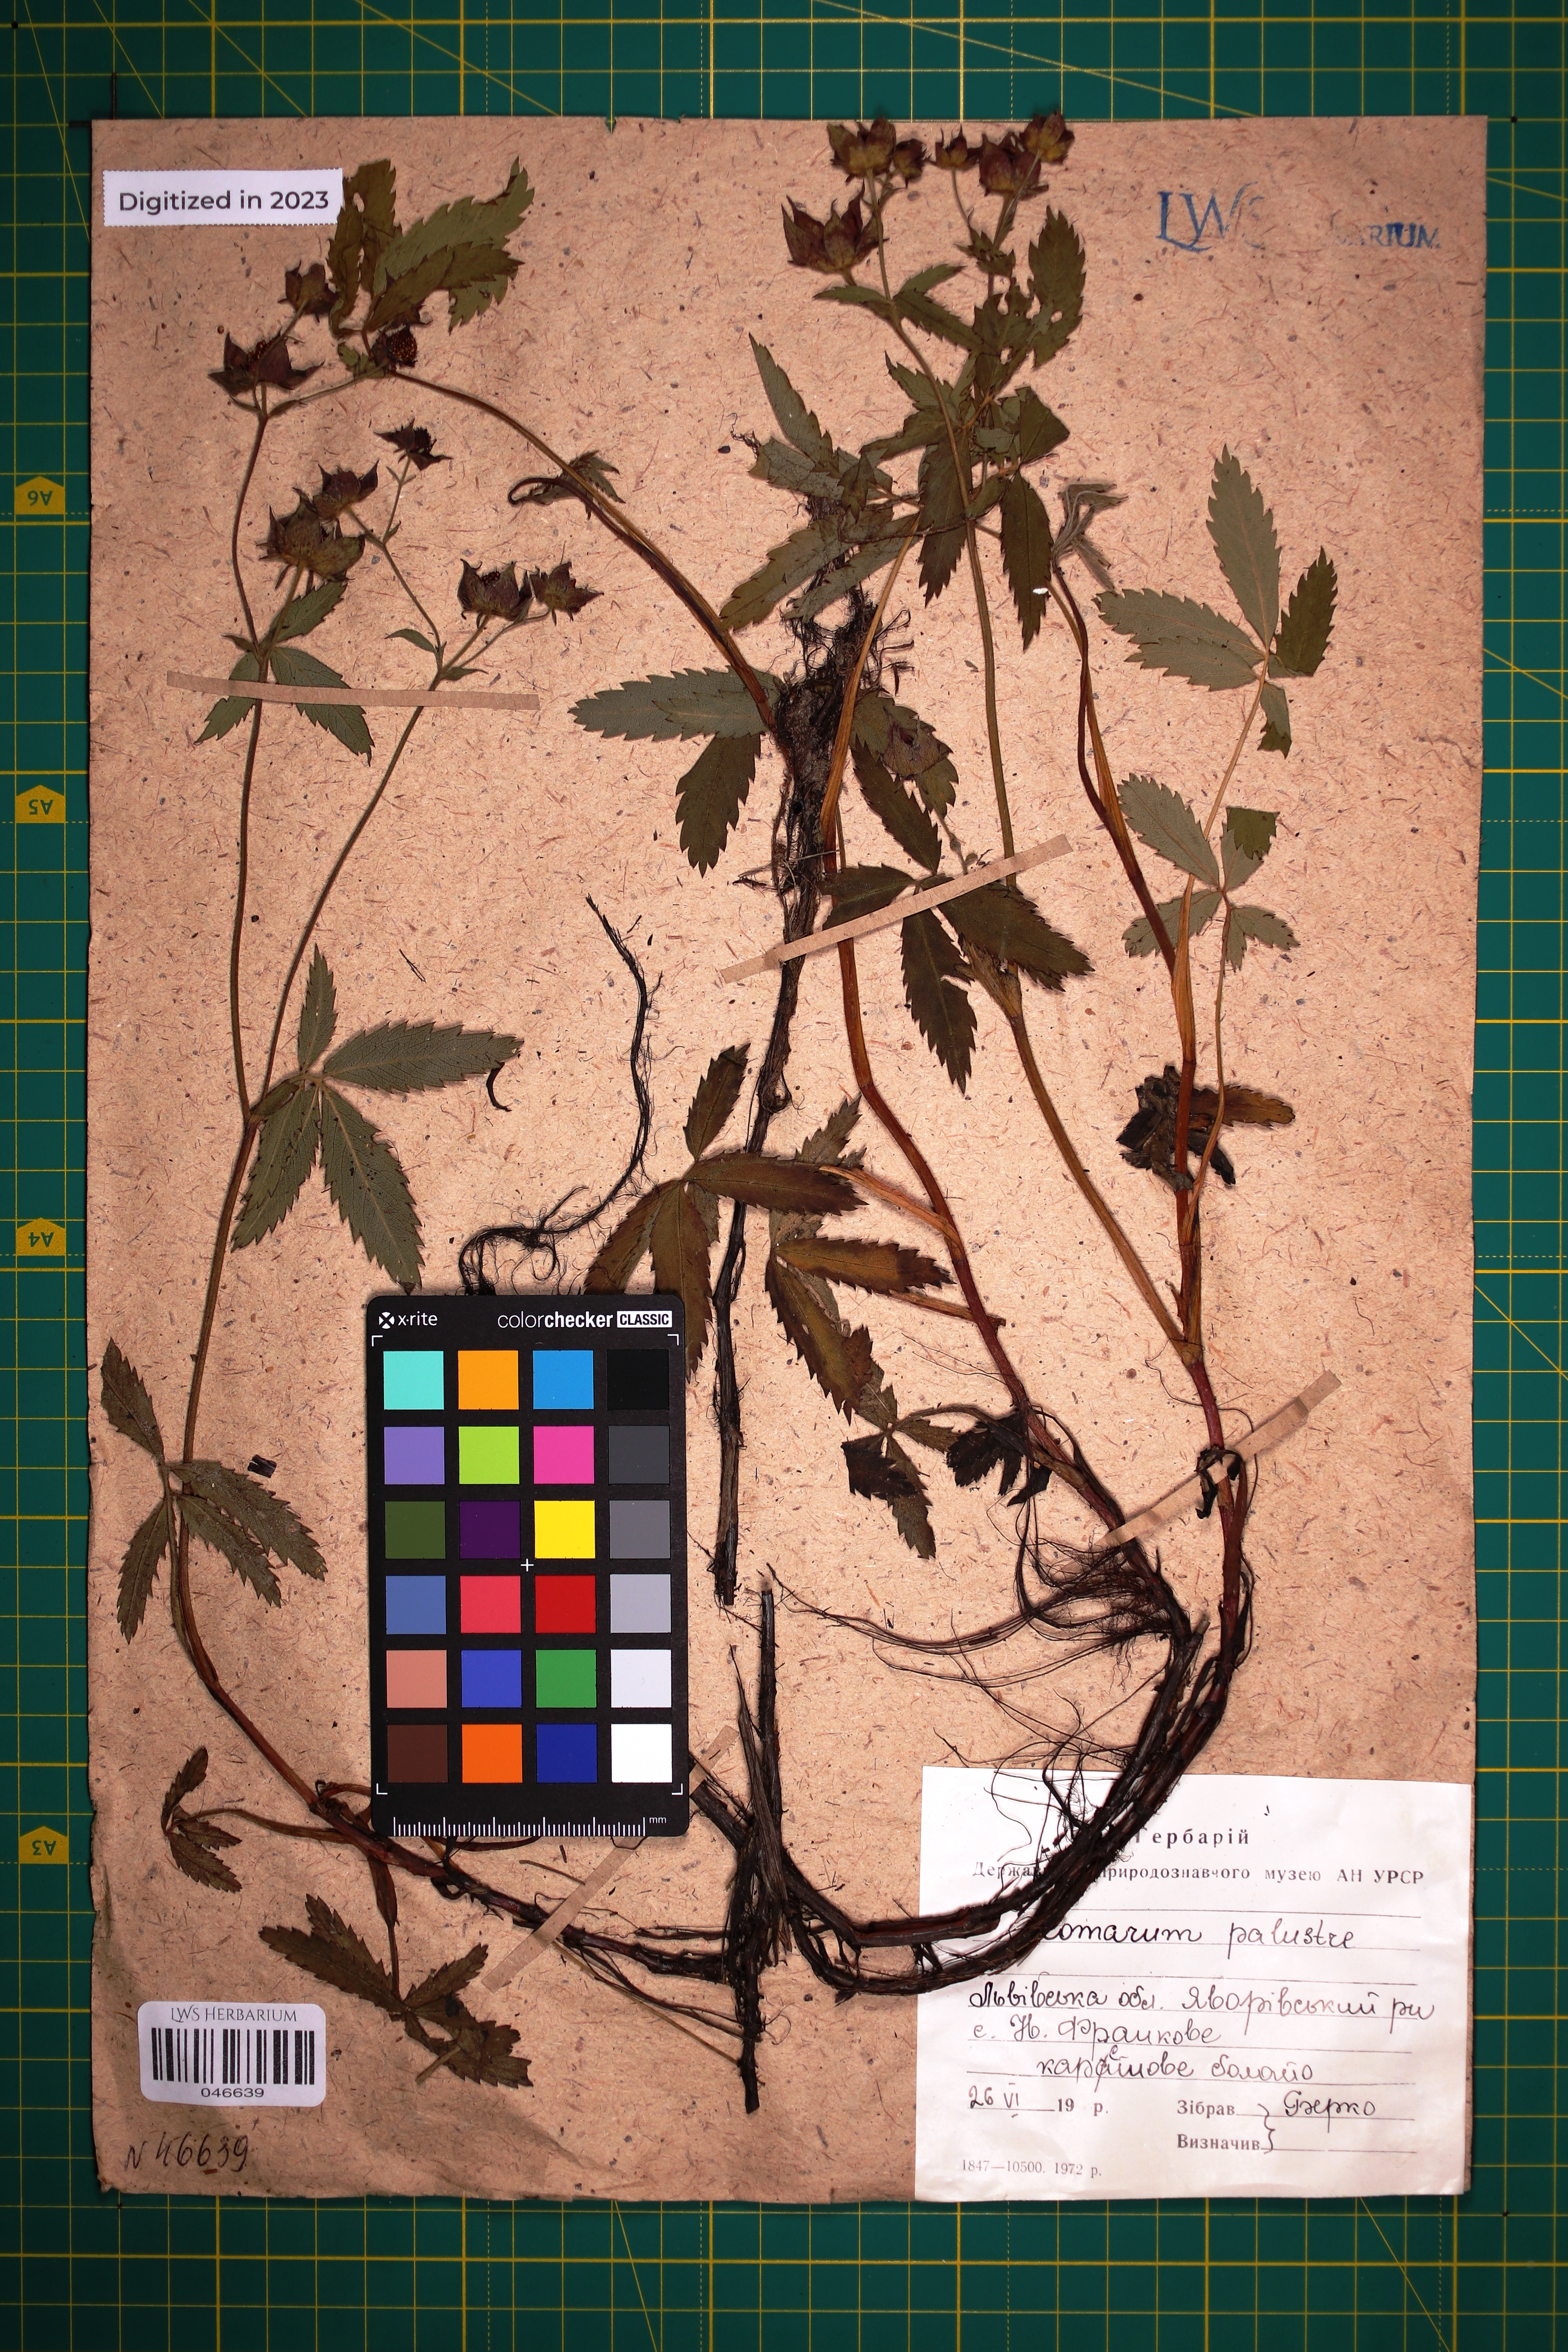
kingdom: Plantae
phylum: Tracheophyta
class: Magnoliopsida
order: Rosales
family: Rosaceae
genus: Comarum
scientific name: Comarum palustre
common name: Marsh cinquefoil
